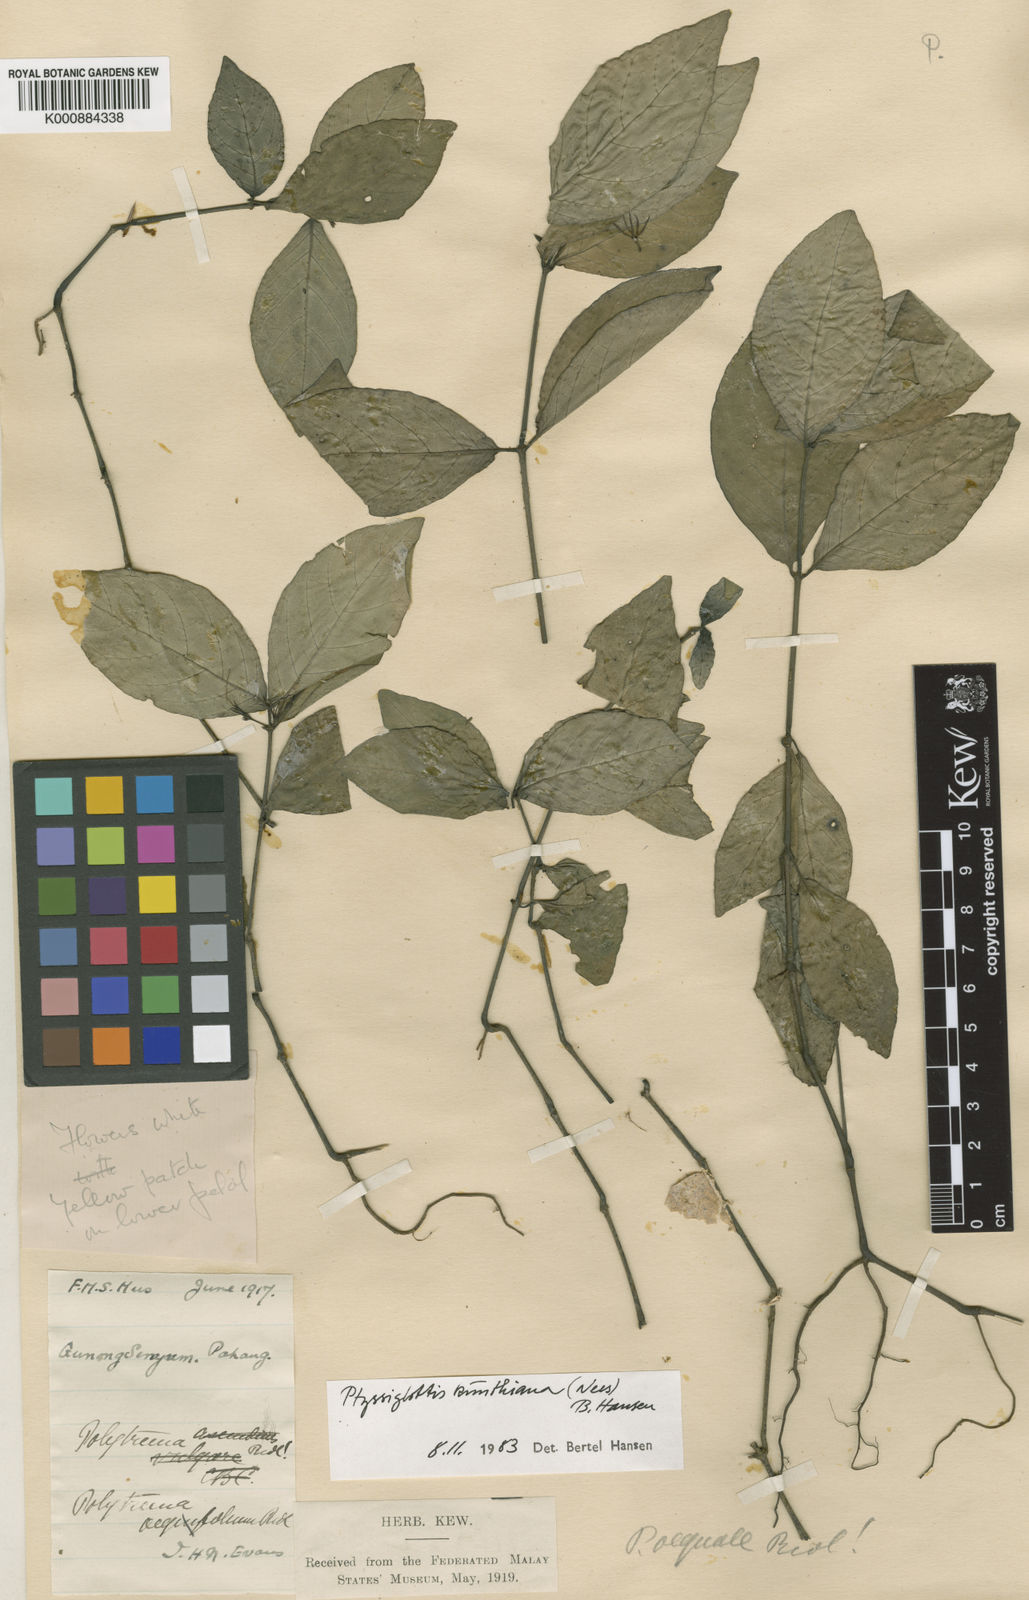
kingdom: Plantae
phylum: Tracheophyta
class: Magnoliopsida
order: Lamiales
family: Acanthaceae
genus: Ptyssiglottis
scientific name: Ptyssiglottis kunthiana
